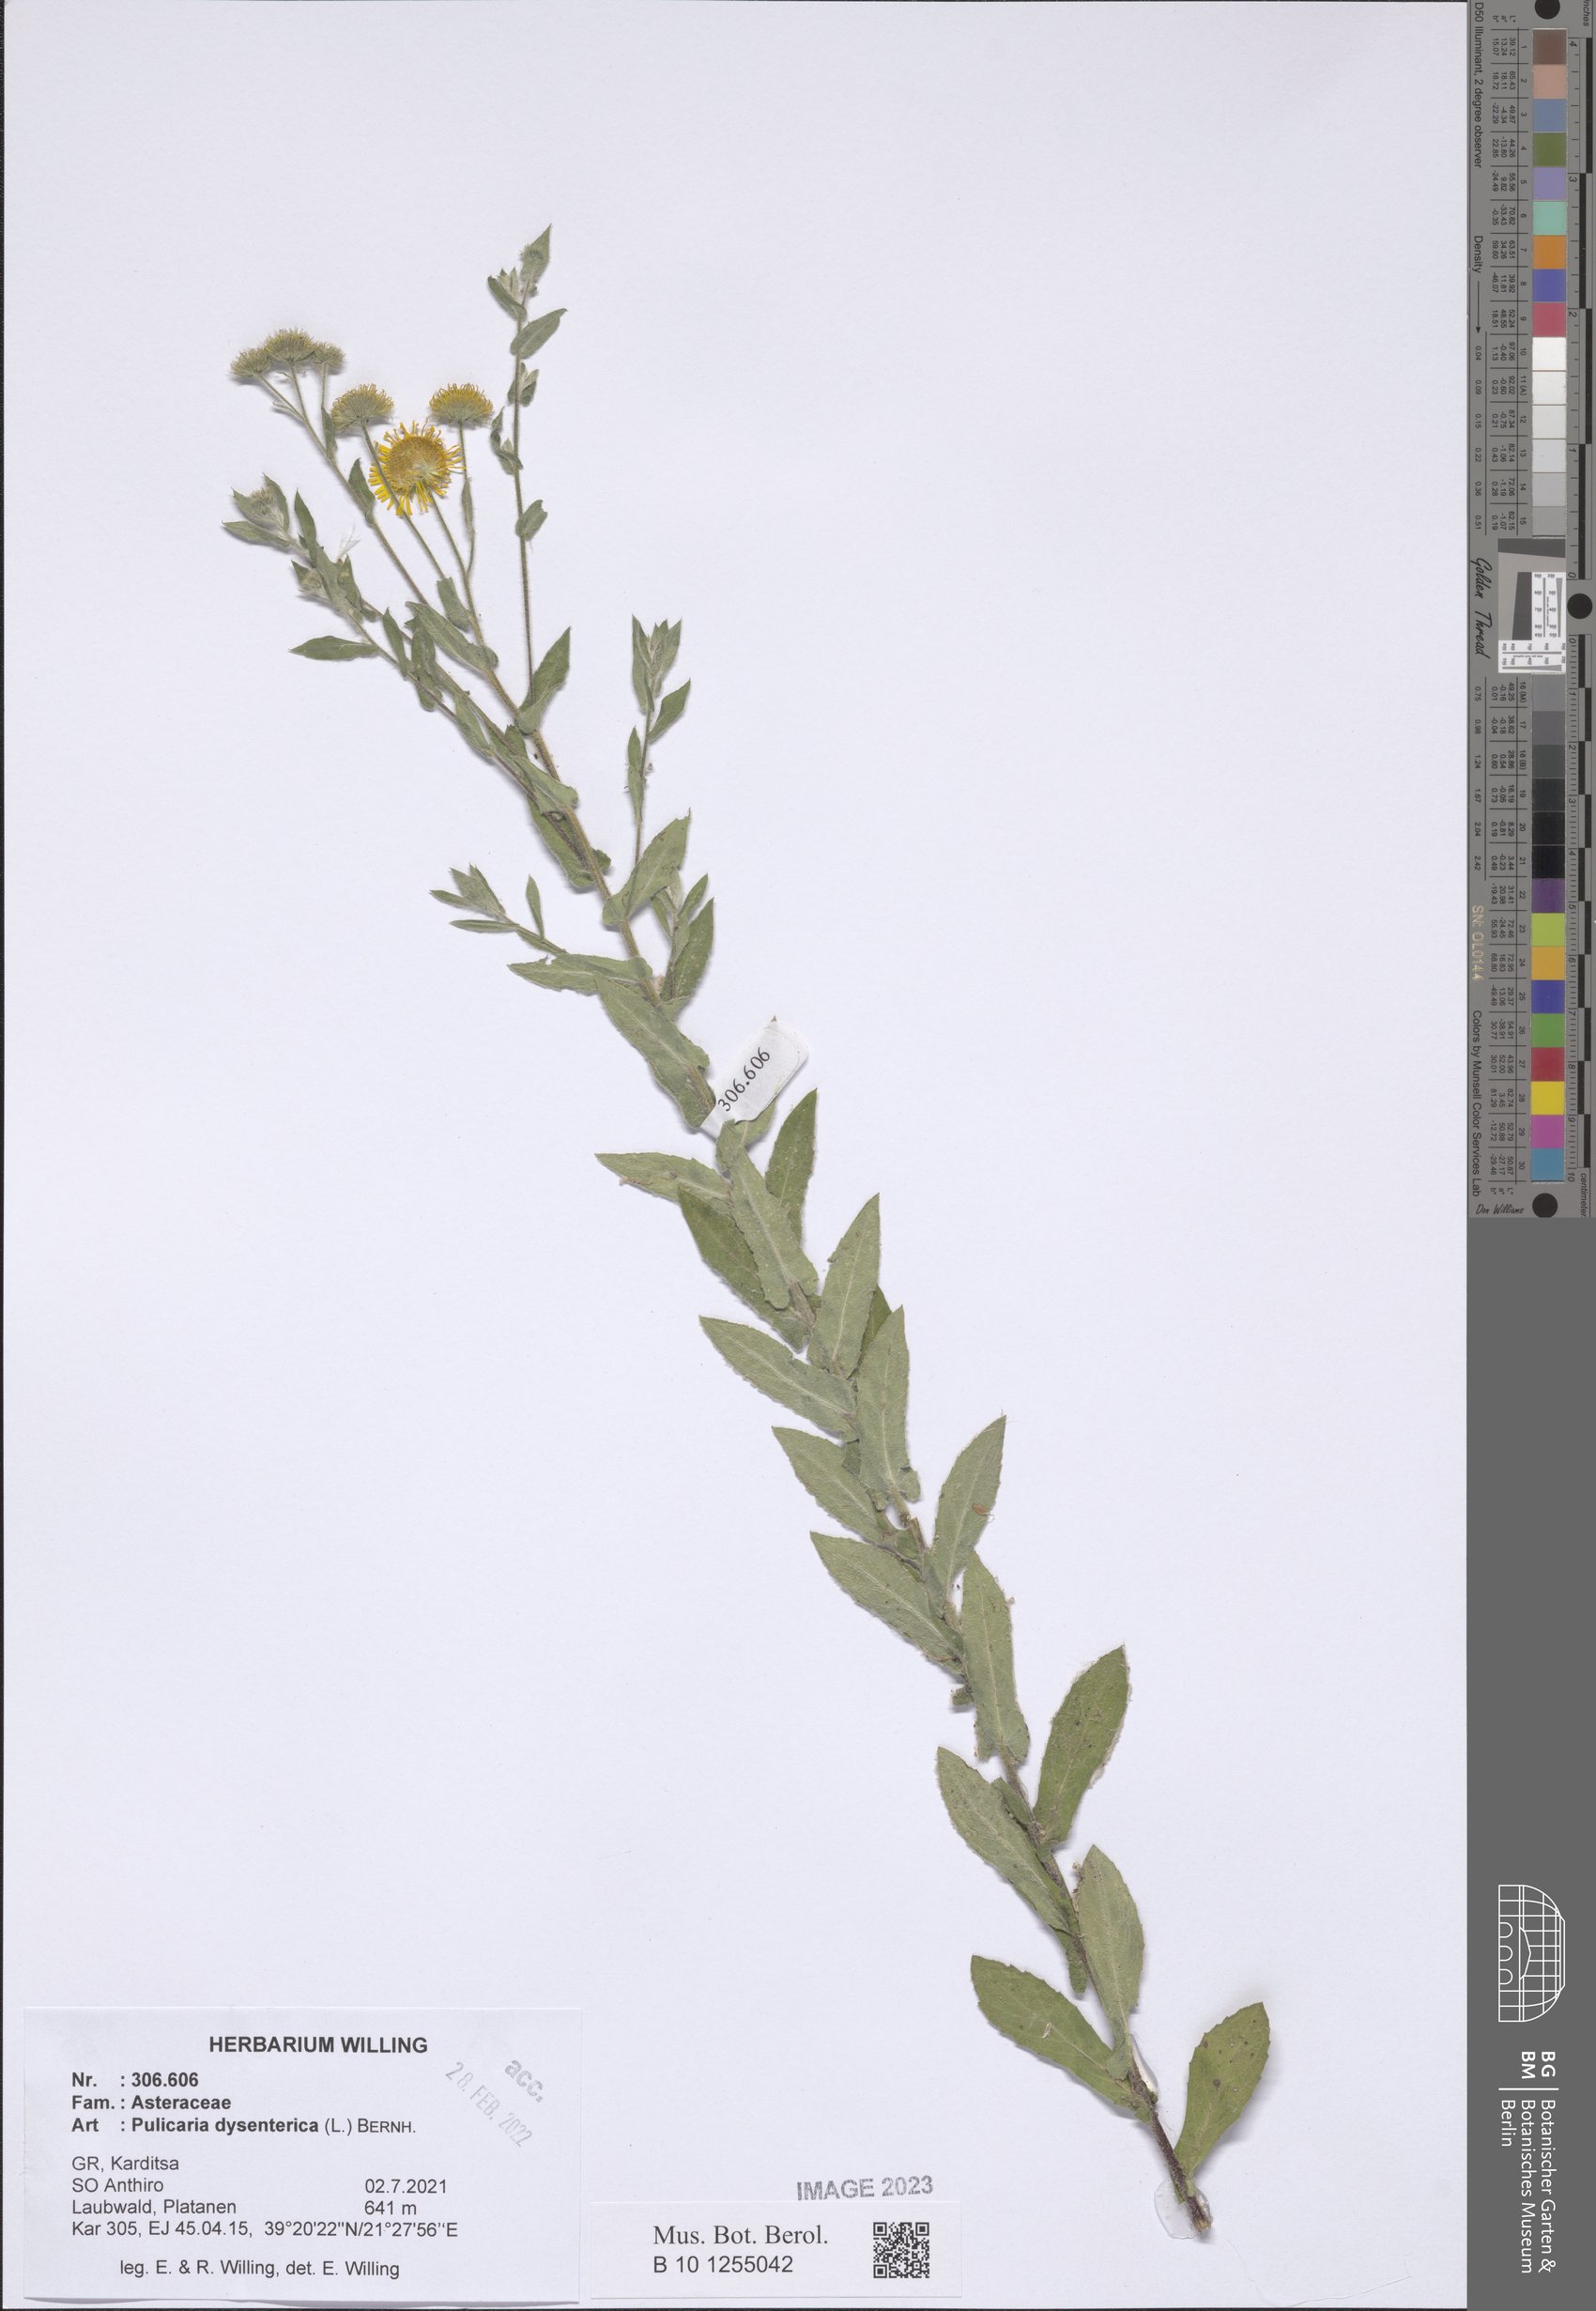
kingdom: Plantae
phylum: Tracheophyta
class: Magnoliopsida
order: Asterales
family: Asteraceae
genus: Pulicaria
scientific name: Pulicaria dysenterica
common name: Common fleabane
